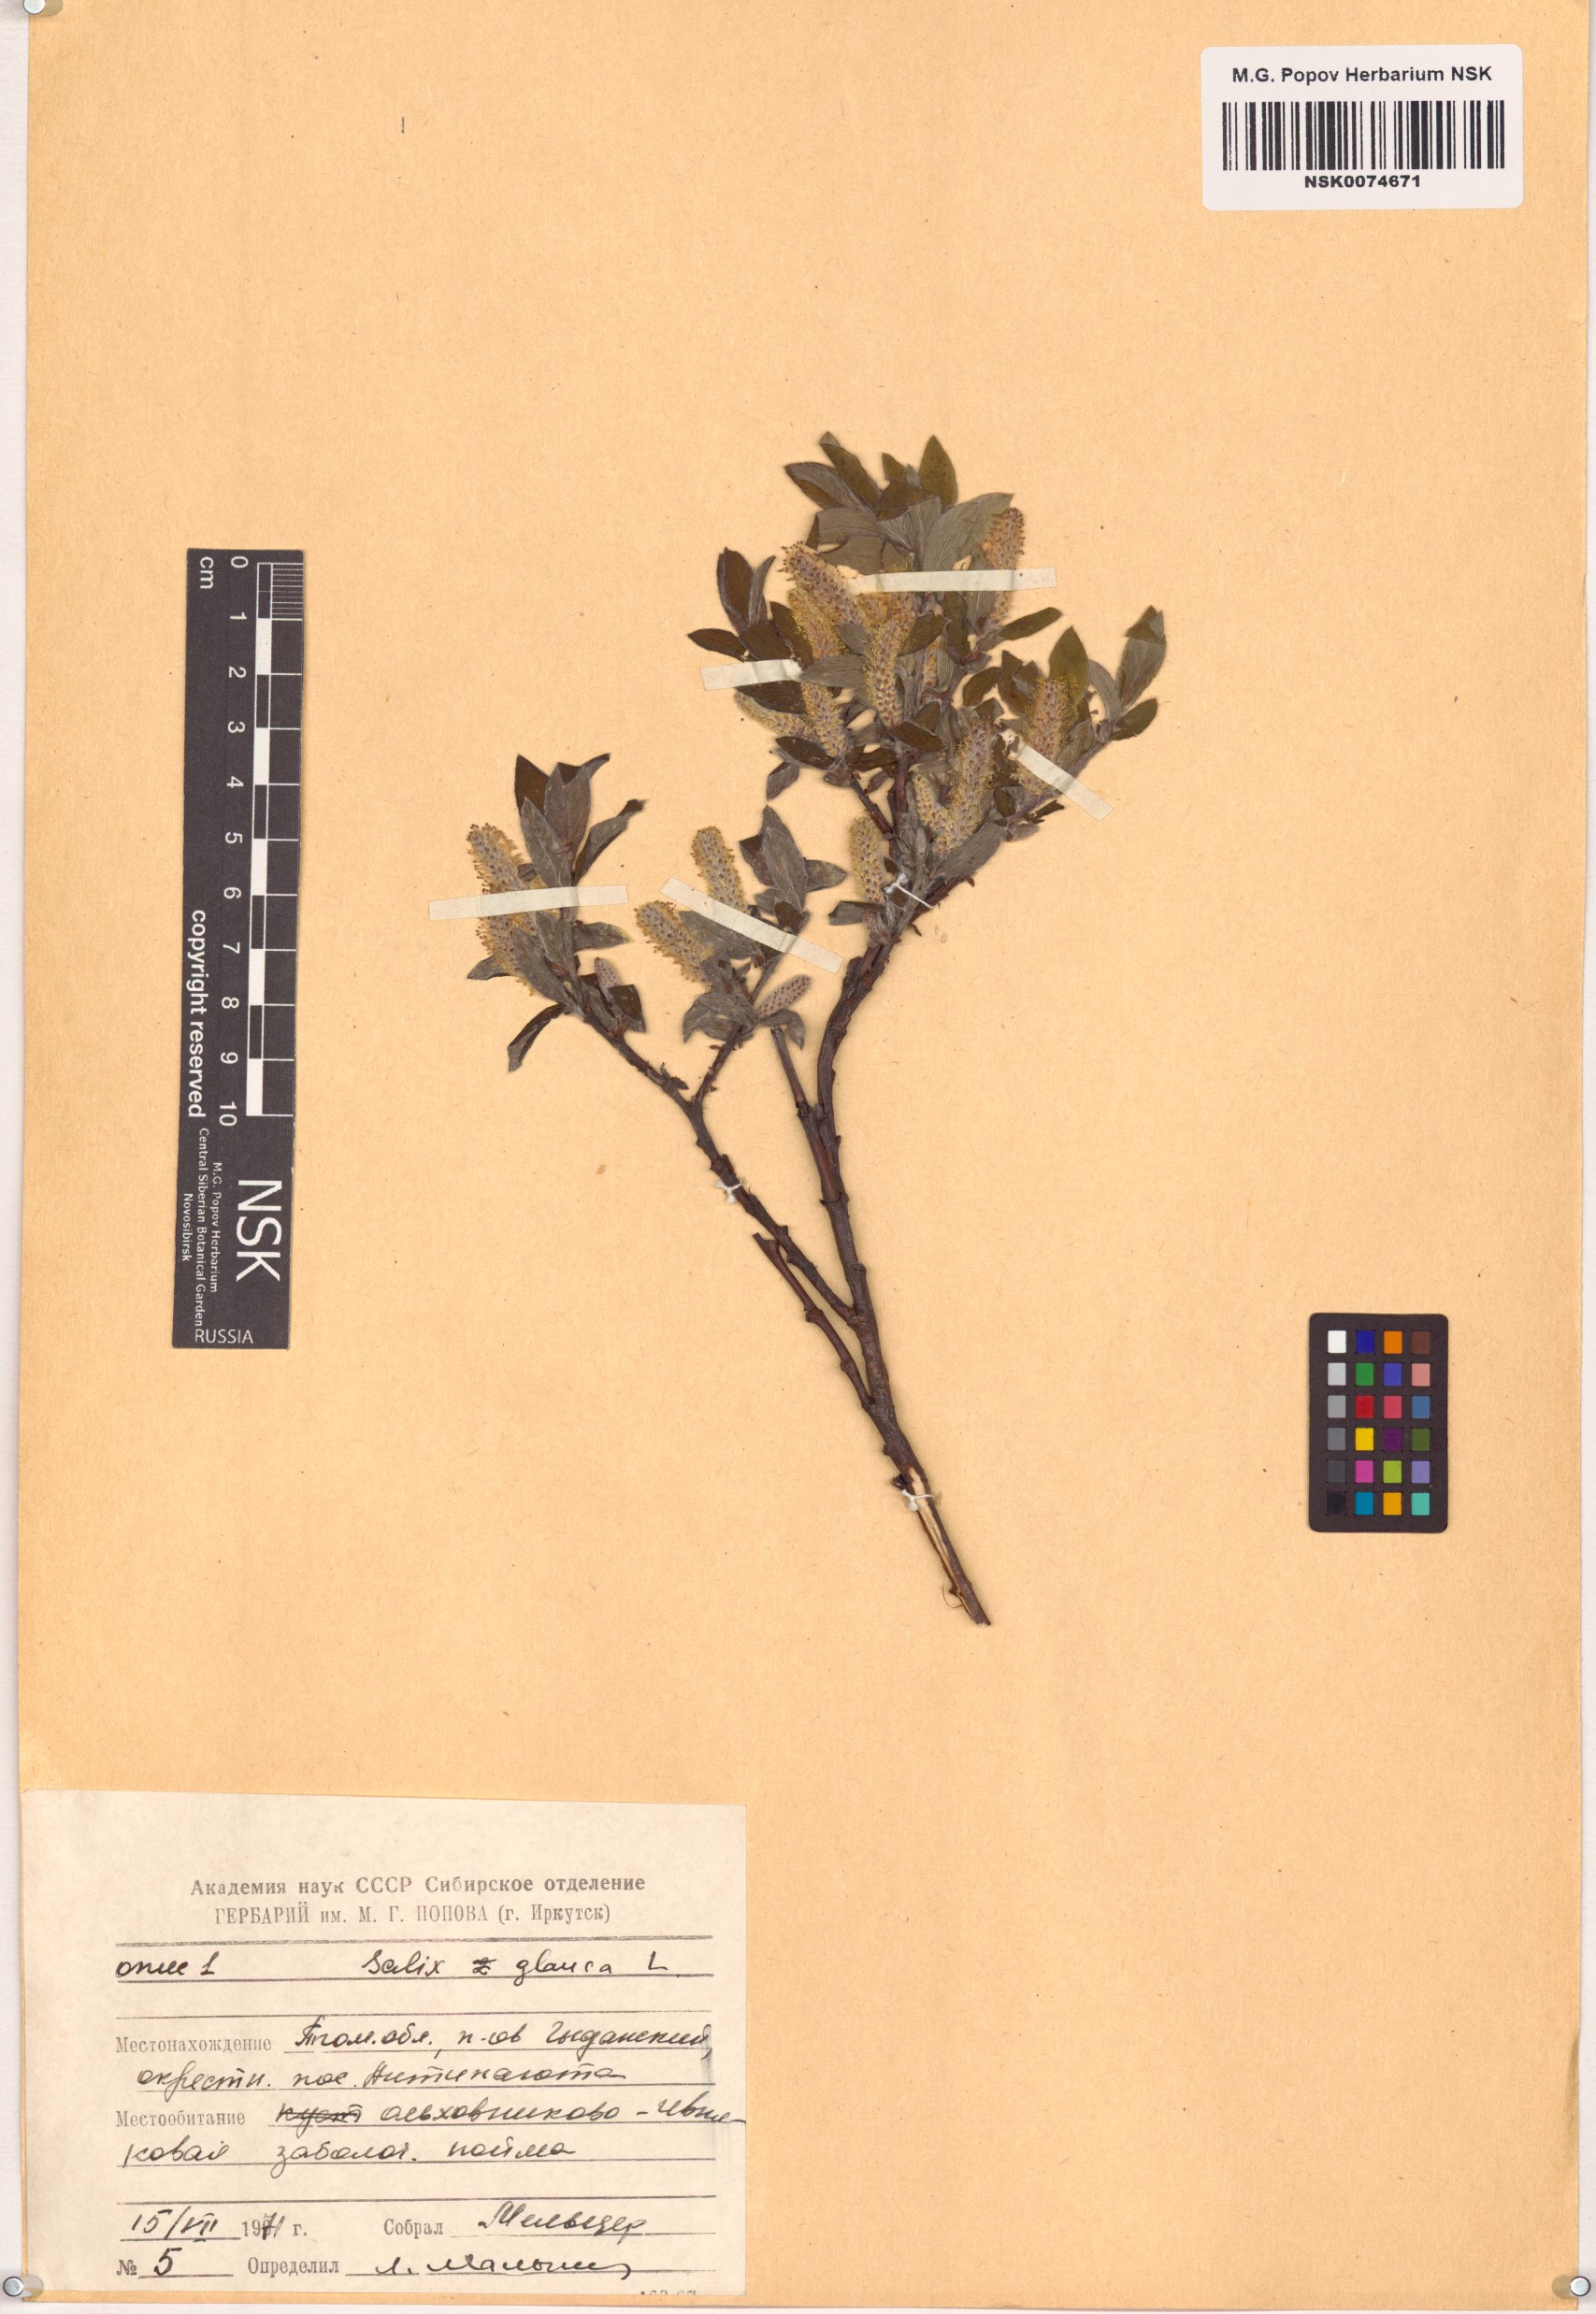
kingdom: Plantae
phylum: Tracheophyta
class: Magnoliopsida
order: Malpighiales
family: Salicaceae
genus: Salix
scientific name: Salix glauca
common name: Glaucous willow
